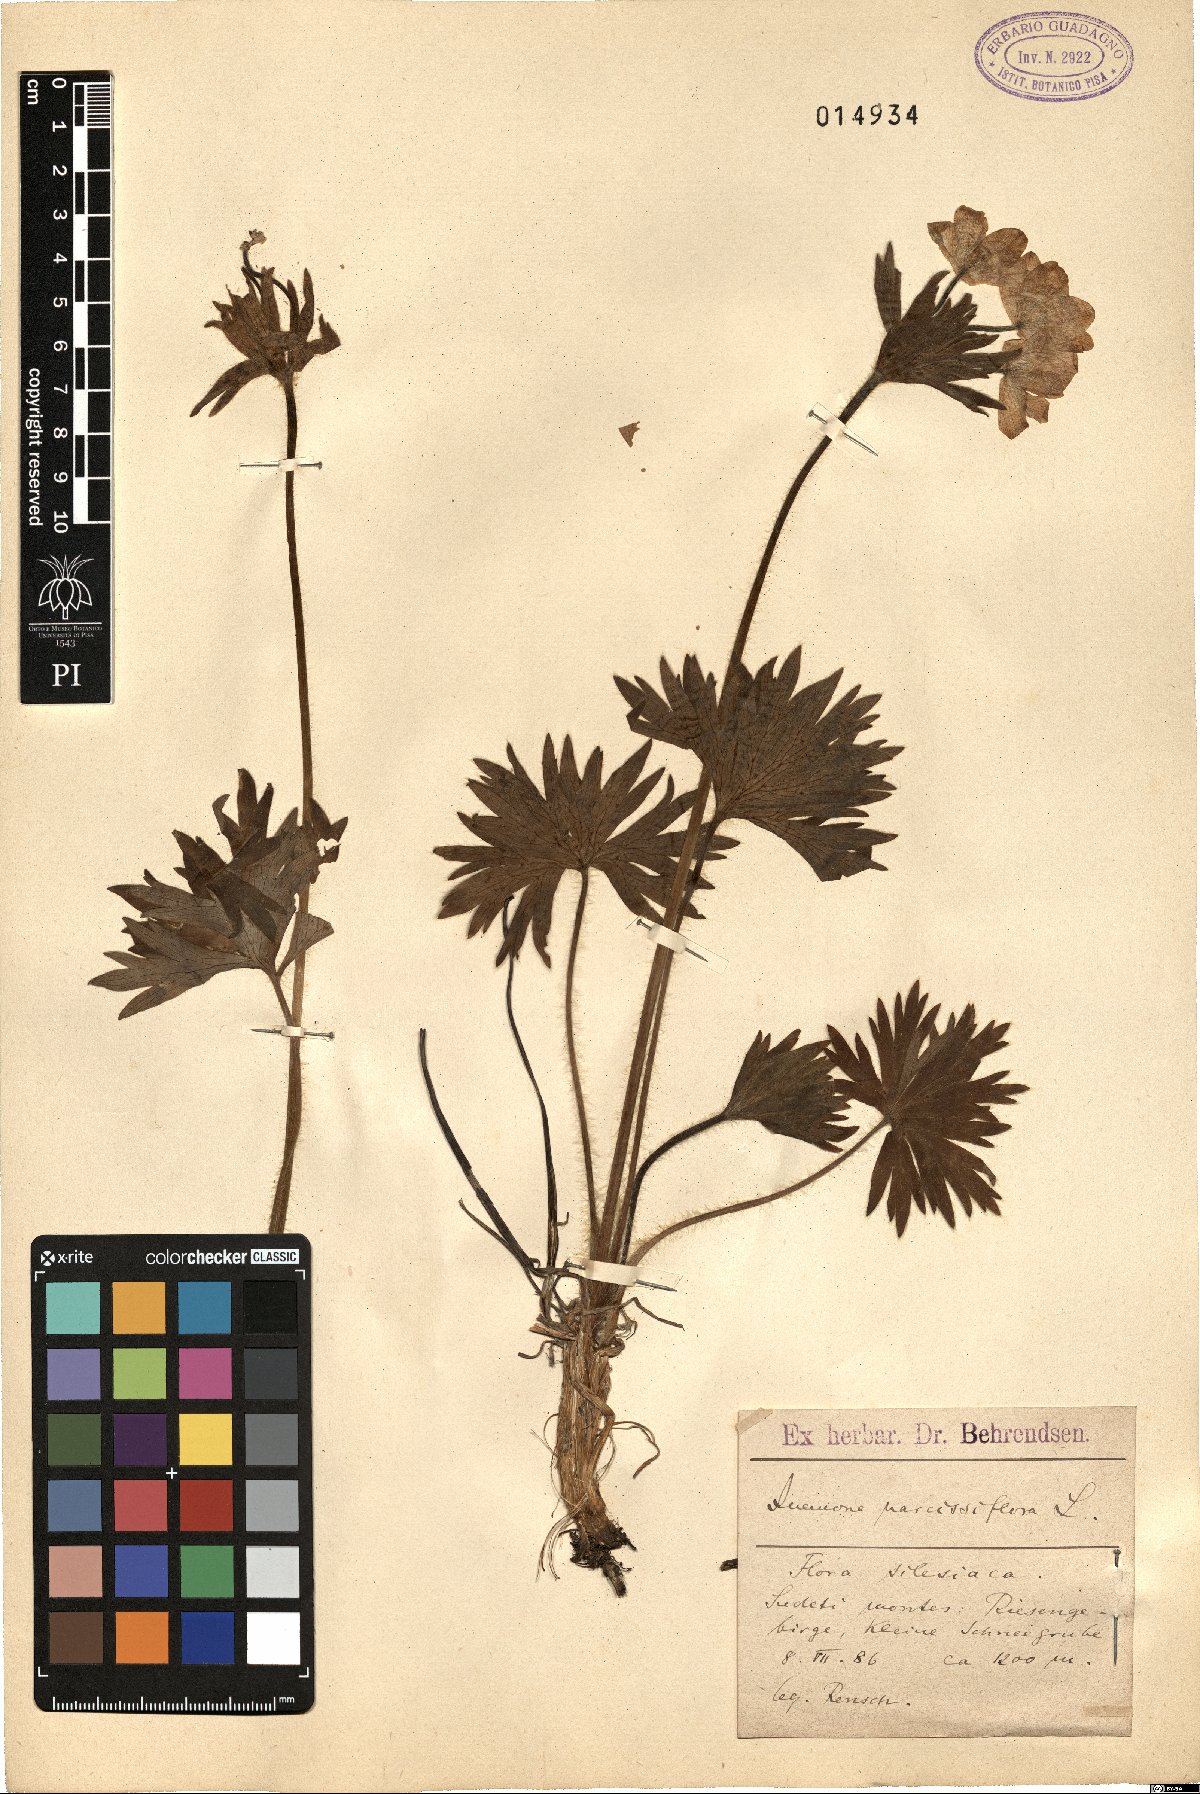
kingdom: Plantae
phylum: Tracheophyta
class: Magnoliopsida
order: Ranunculales
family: Ranunculaceae
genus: Anemonastrum
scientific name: Anemonastrum narcissiflorum
